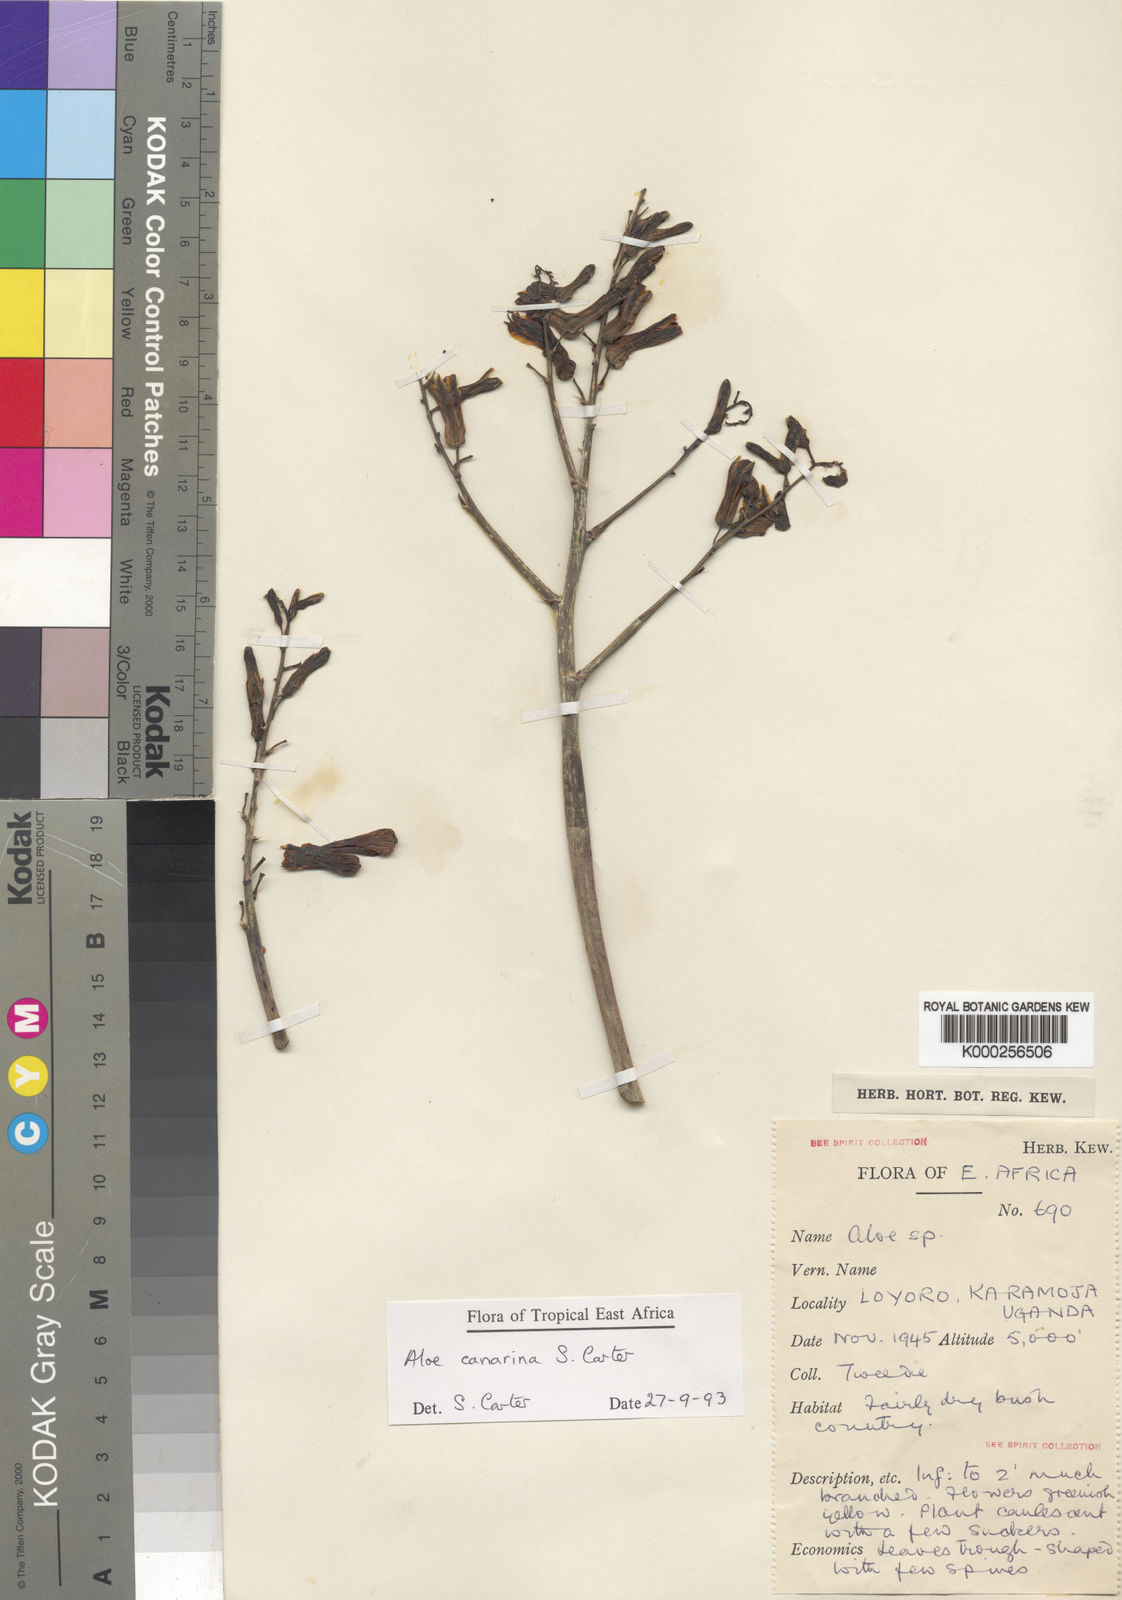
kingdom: Plantae
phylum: Tracheophyta
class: Liliopsida
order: Asparagales
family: Asphodelaceae
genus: Aloe
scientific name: Aloe canarina
